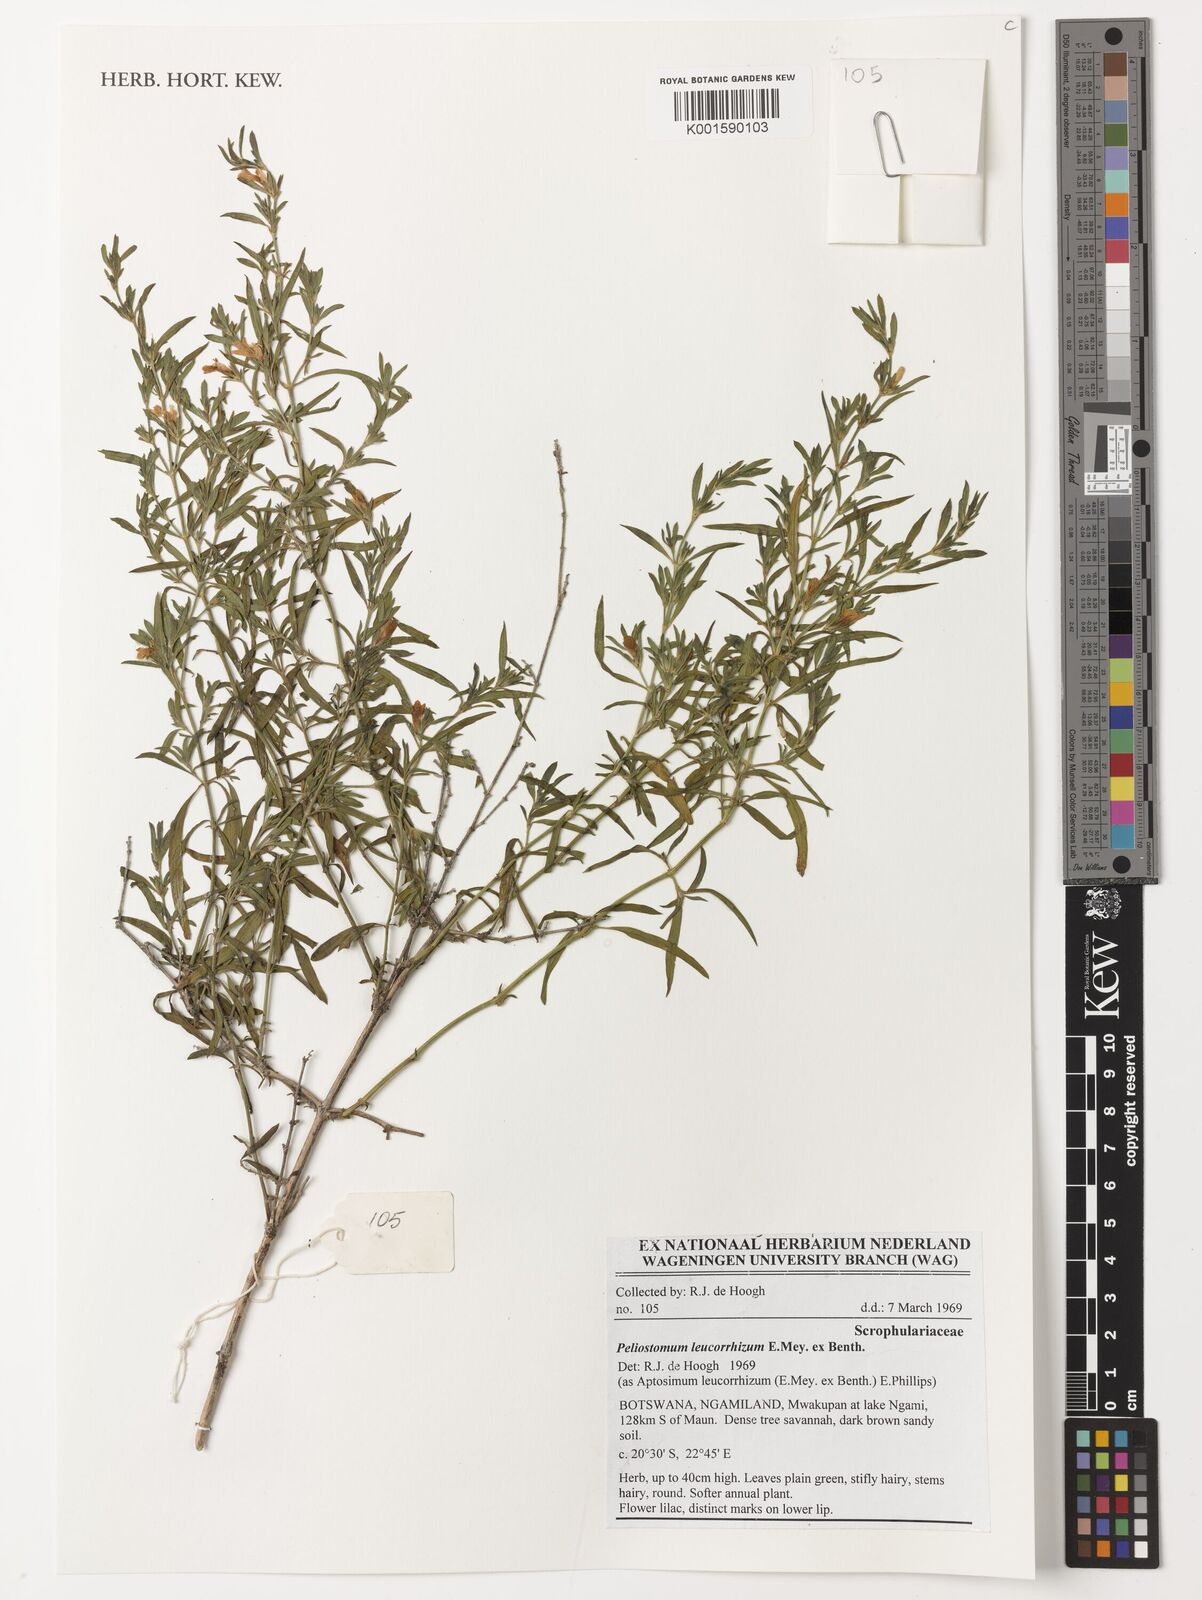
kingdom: Plantae
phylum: Tracheophyta
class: Magnoliopsida
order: Lamiales
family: Scrophulariaceae
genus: Peliostomum
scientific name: Peliostomum leucorrhizum
